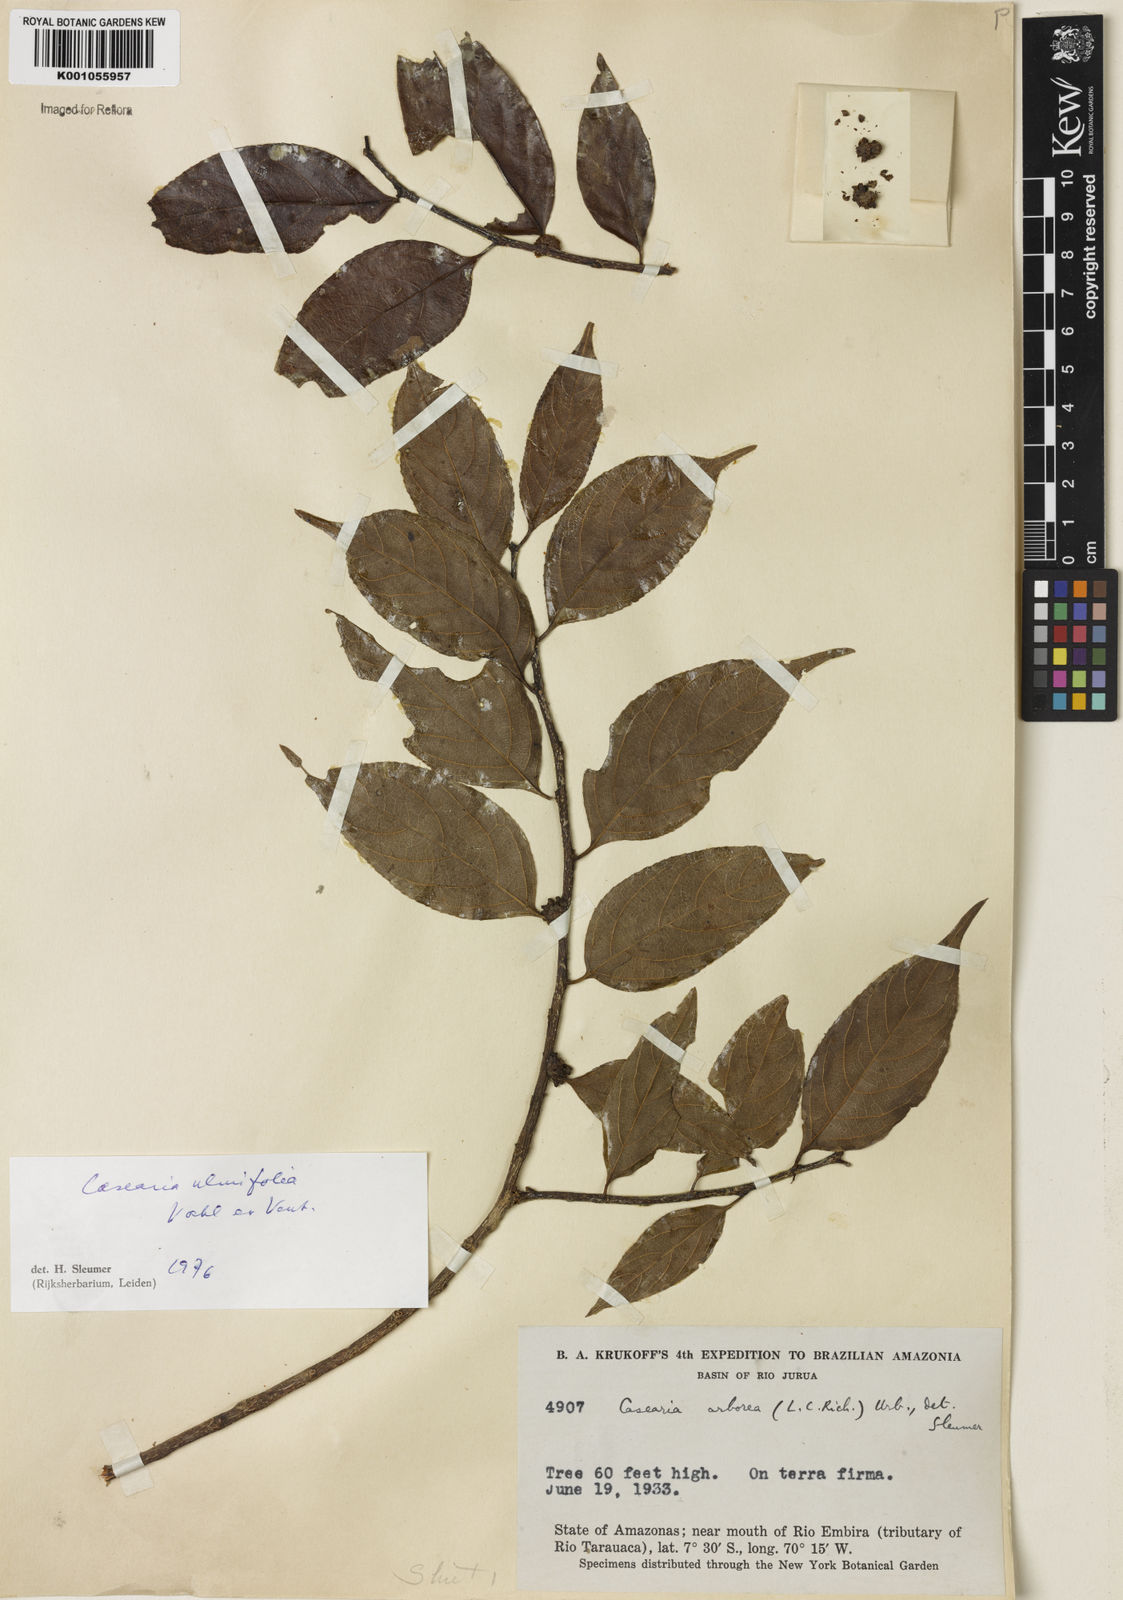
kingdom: Plantae
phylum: Tracheophyta
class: Magnoliopsida
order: Malpighiales
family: Salicaceae
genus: Casearia
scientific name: Casearia ulmifolia
